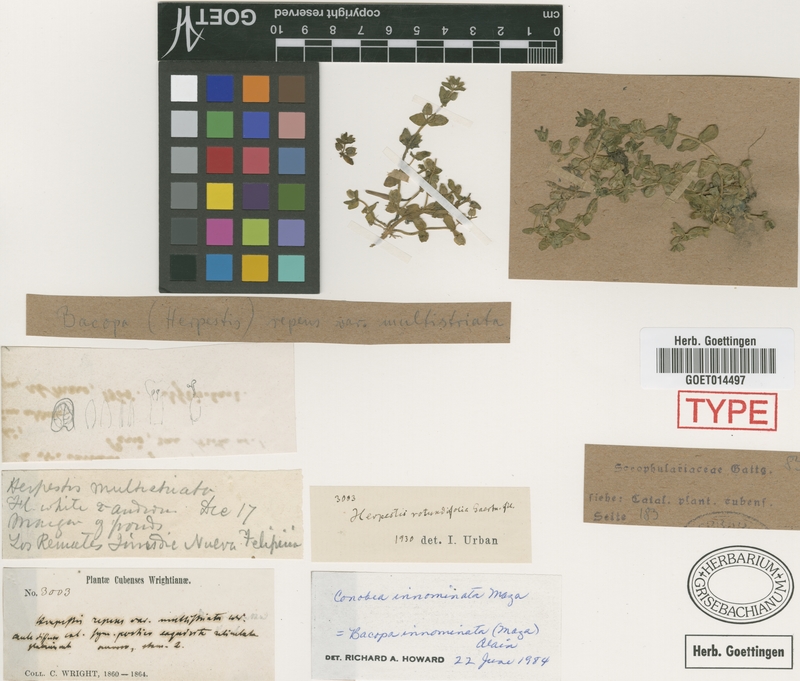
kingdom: Plantae
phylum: Tracheophyta
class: Magnoliopsida
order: Lamiales
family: Plantaginaceae
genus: Bacopa
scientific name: Bacopa innominata
